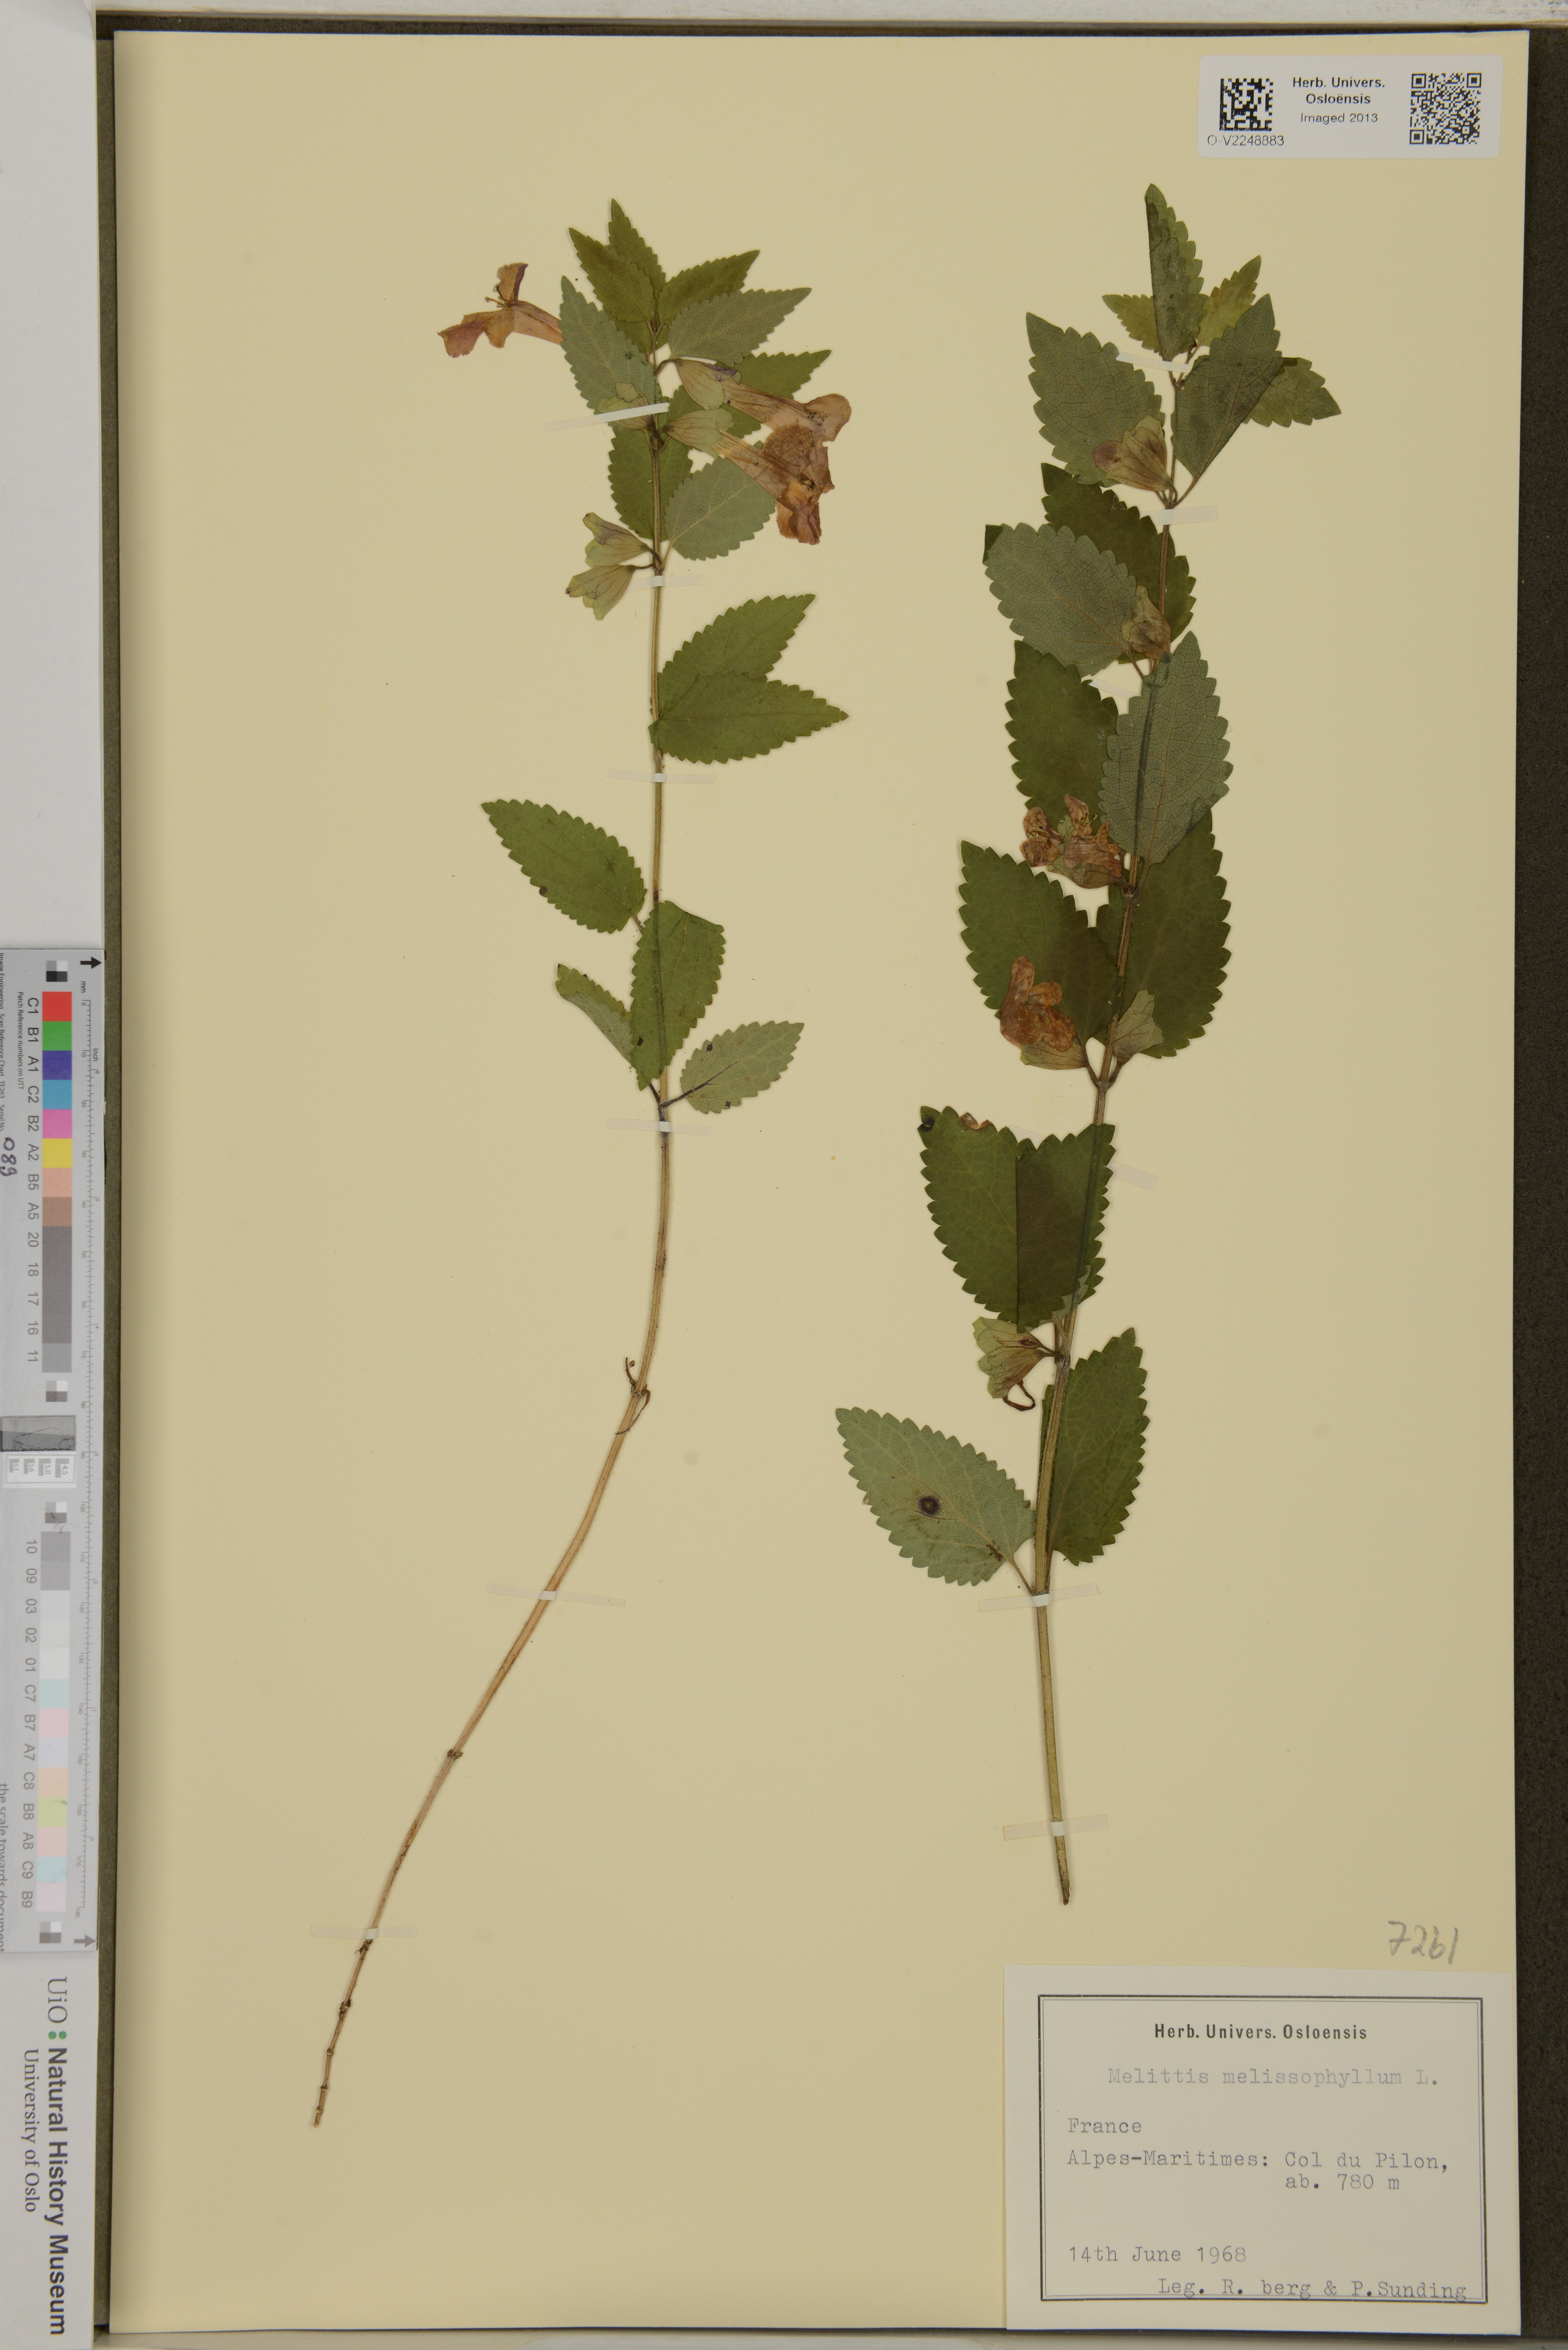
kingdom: Plantae
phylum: Tracheophyta
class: Magnoliopsida
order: Lamiales
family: Lamiaceae
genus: Melittis
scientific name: Melittis melissophyllum
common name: Bastard balm
